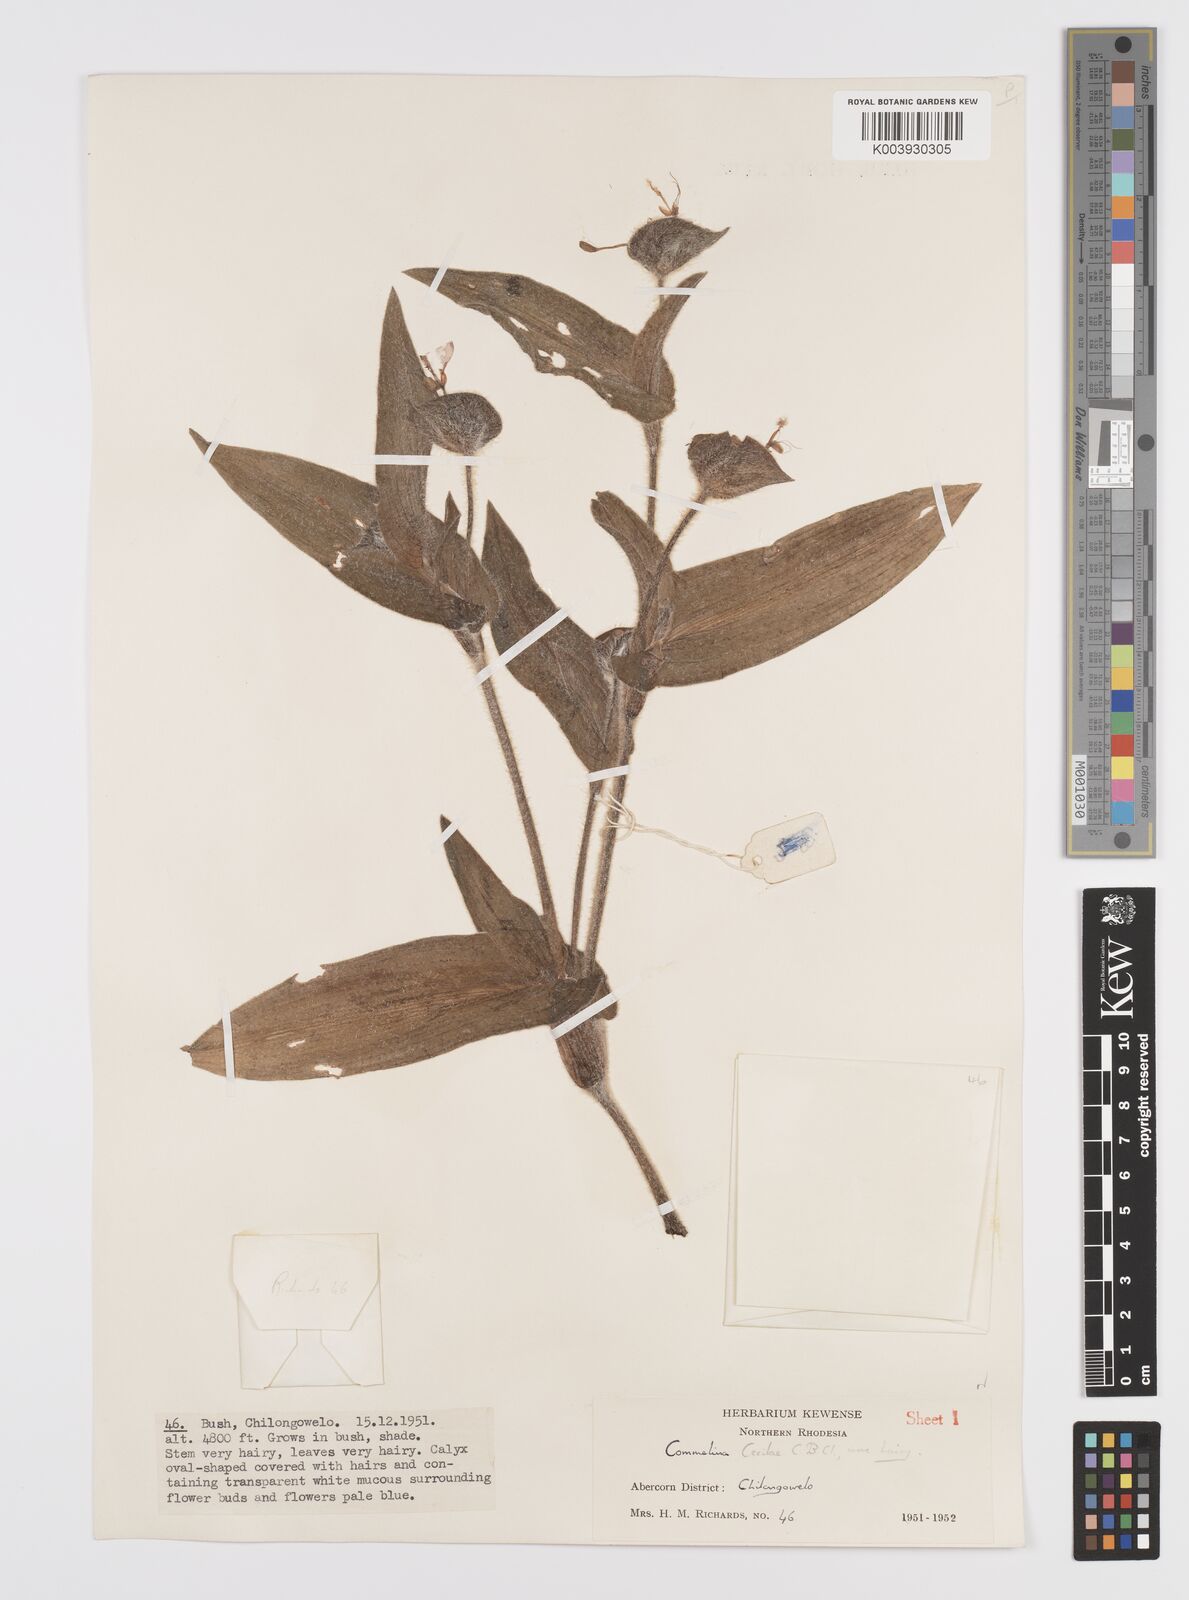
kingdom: Plantae
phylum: Tracheophyta
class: Liliopsida
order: Commelinales
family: Commelinaceae
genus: Commelina
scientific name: Commelina cecilae
